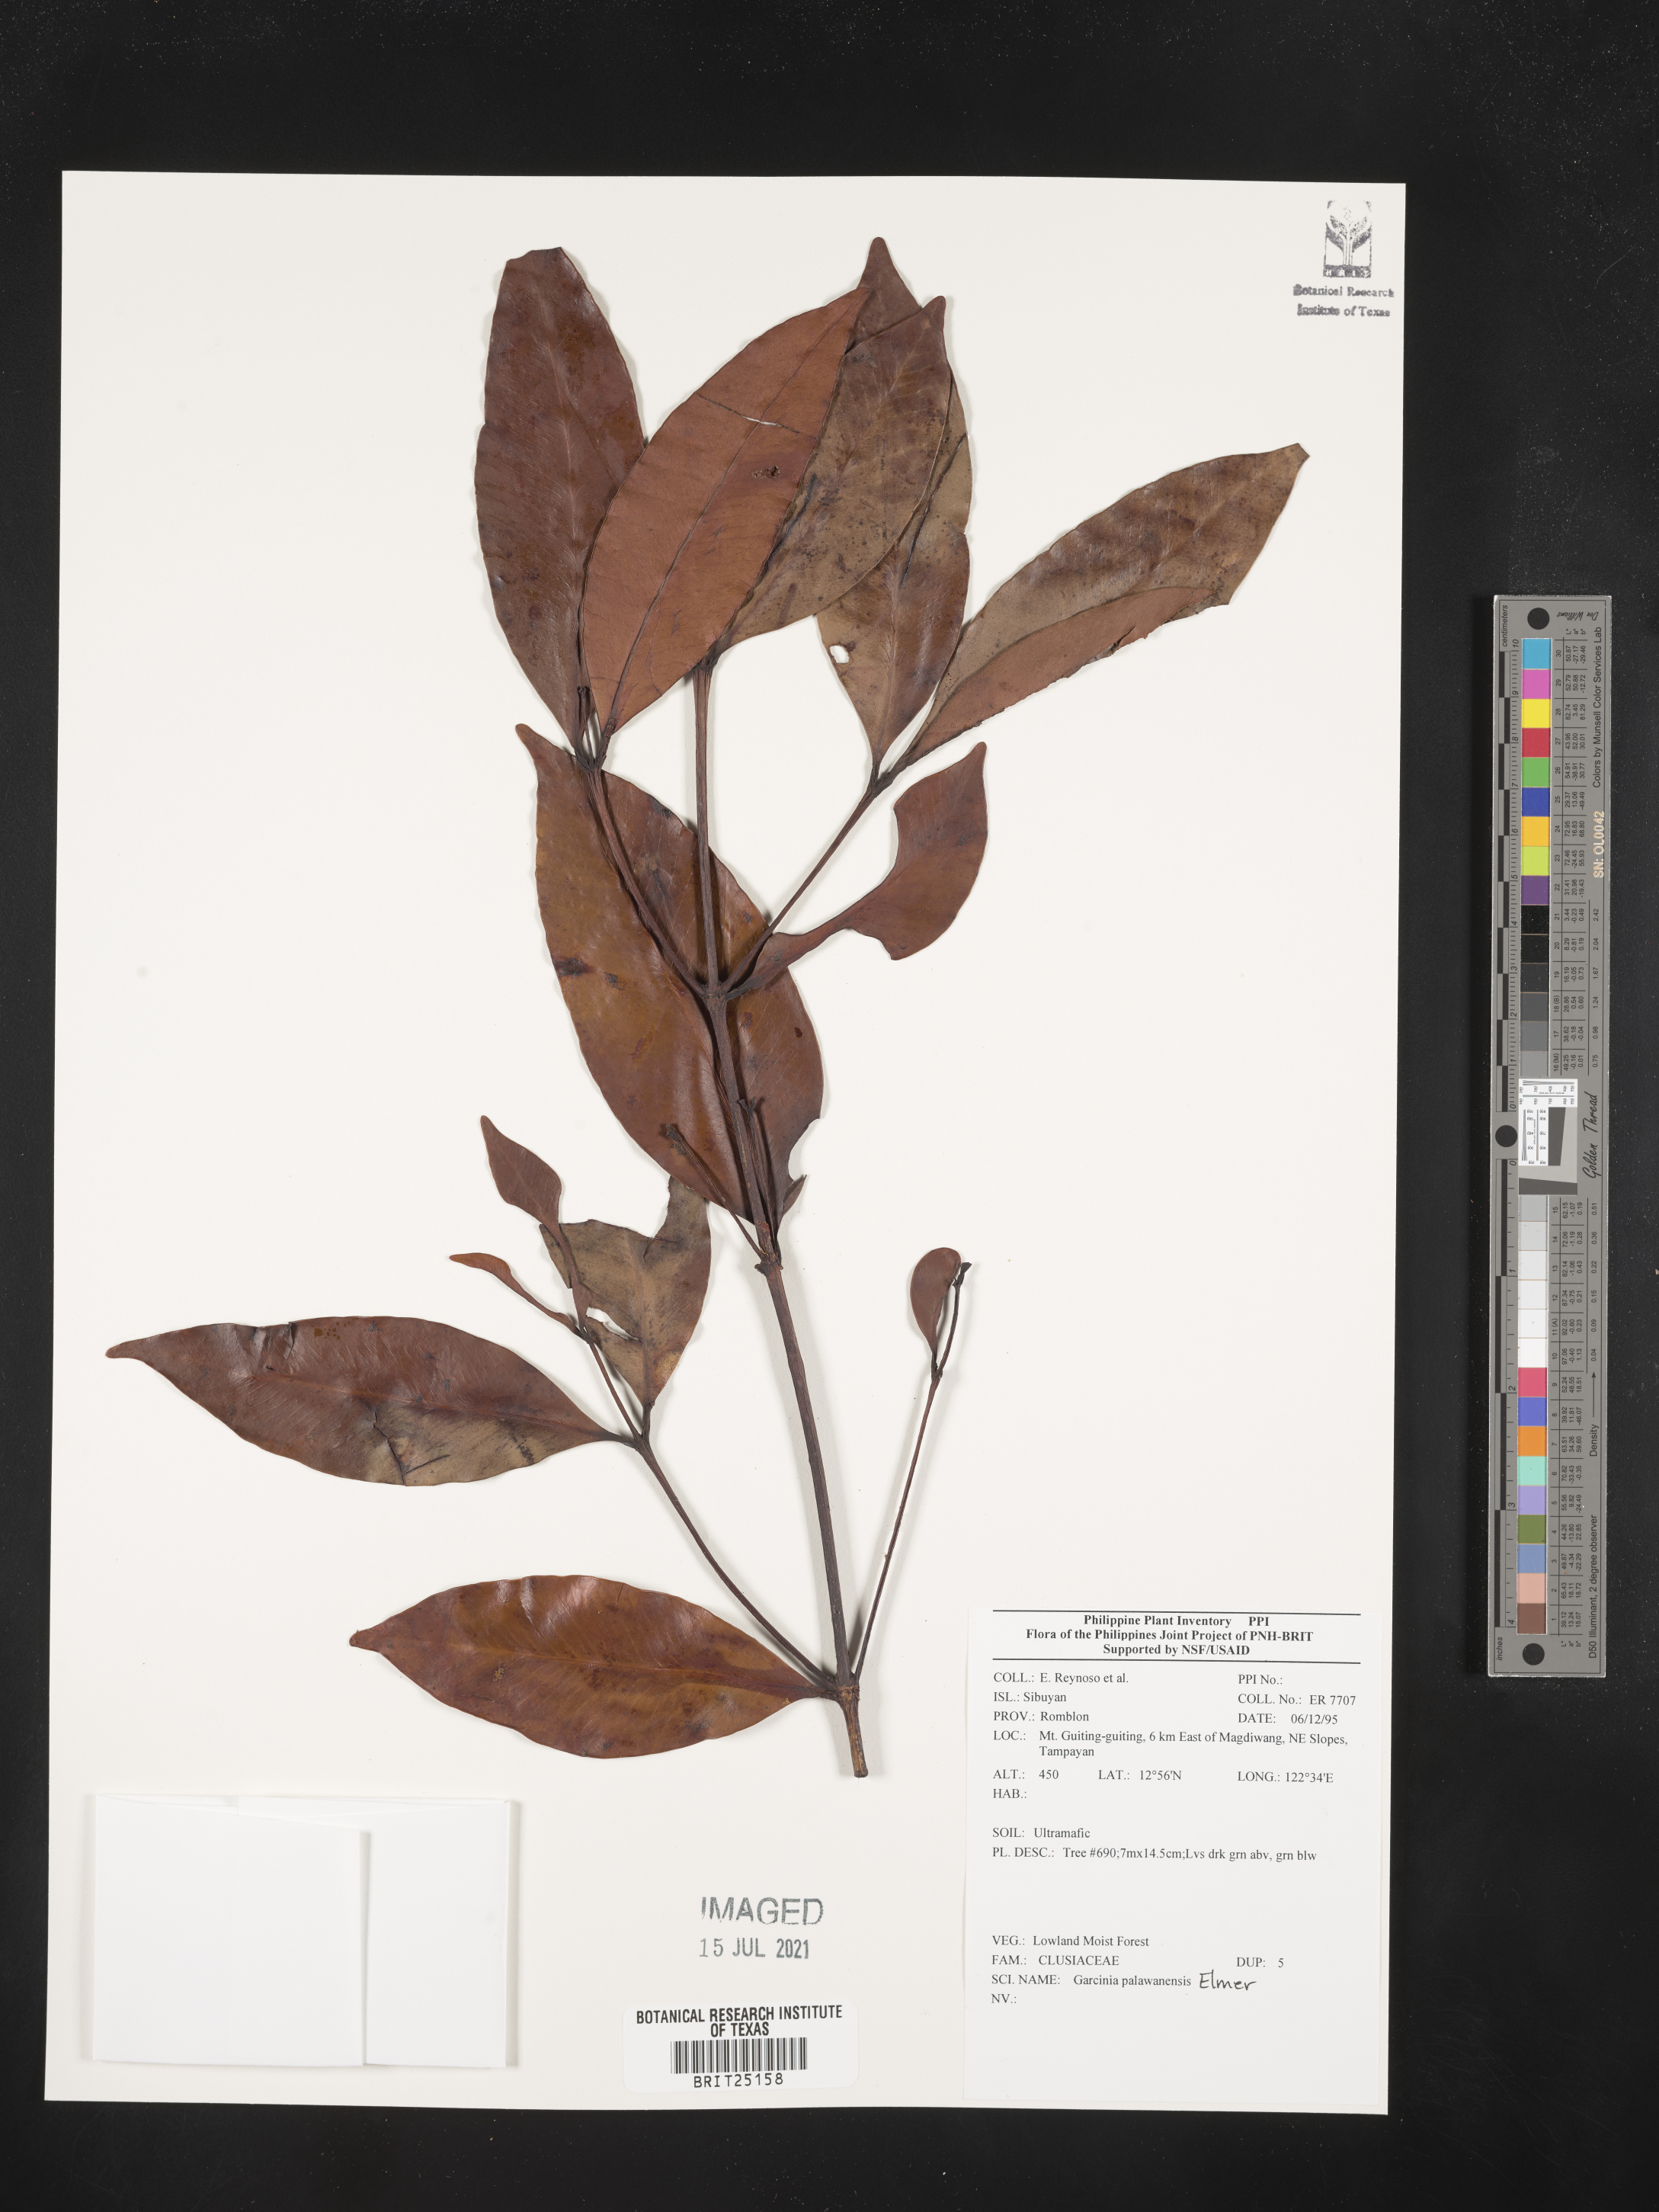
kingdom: Plantae
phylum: Tracheophyta
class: Magnoliopsida
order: Malpighiales
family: Clusiaceae
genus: Garcinia
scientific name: Garcinia dives
